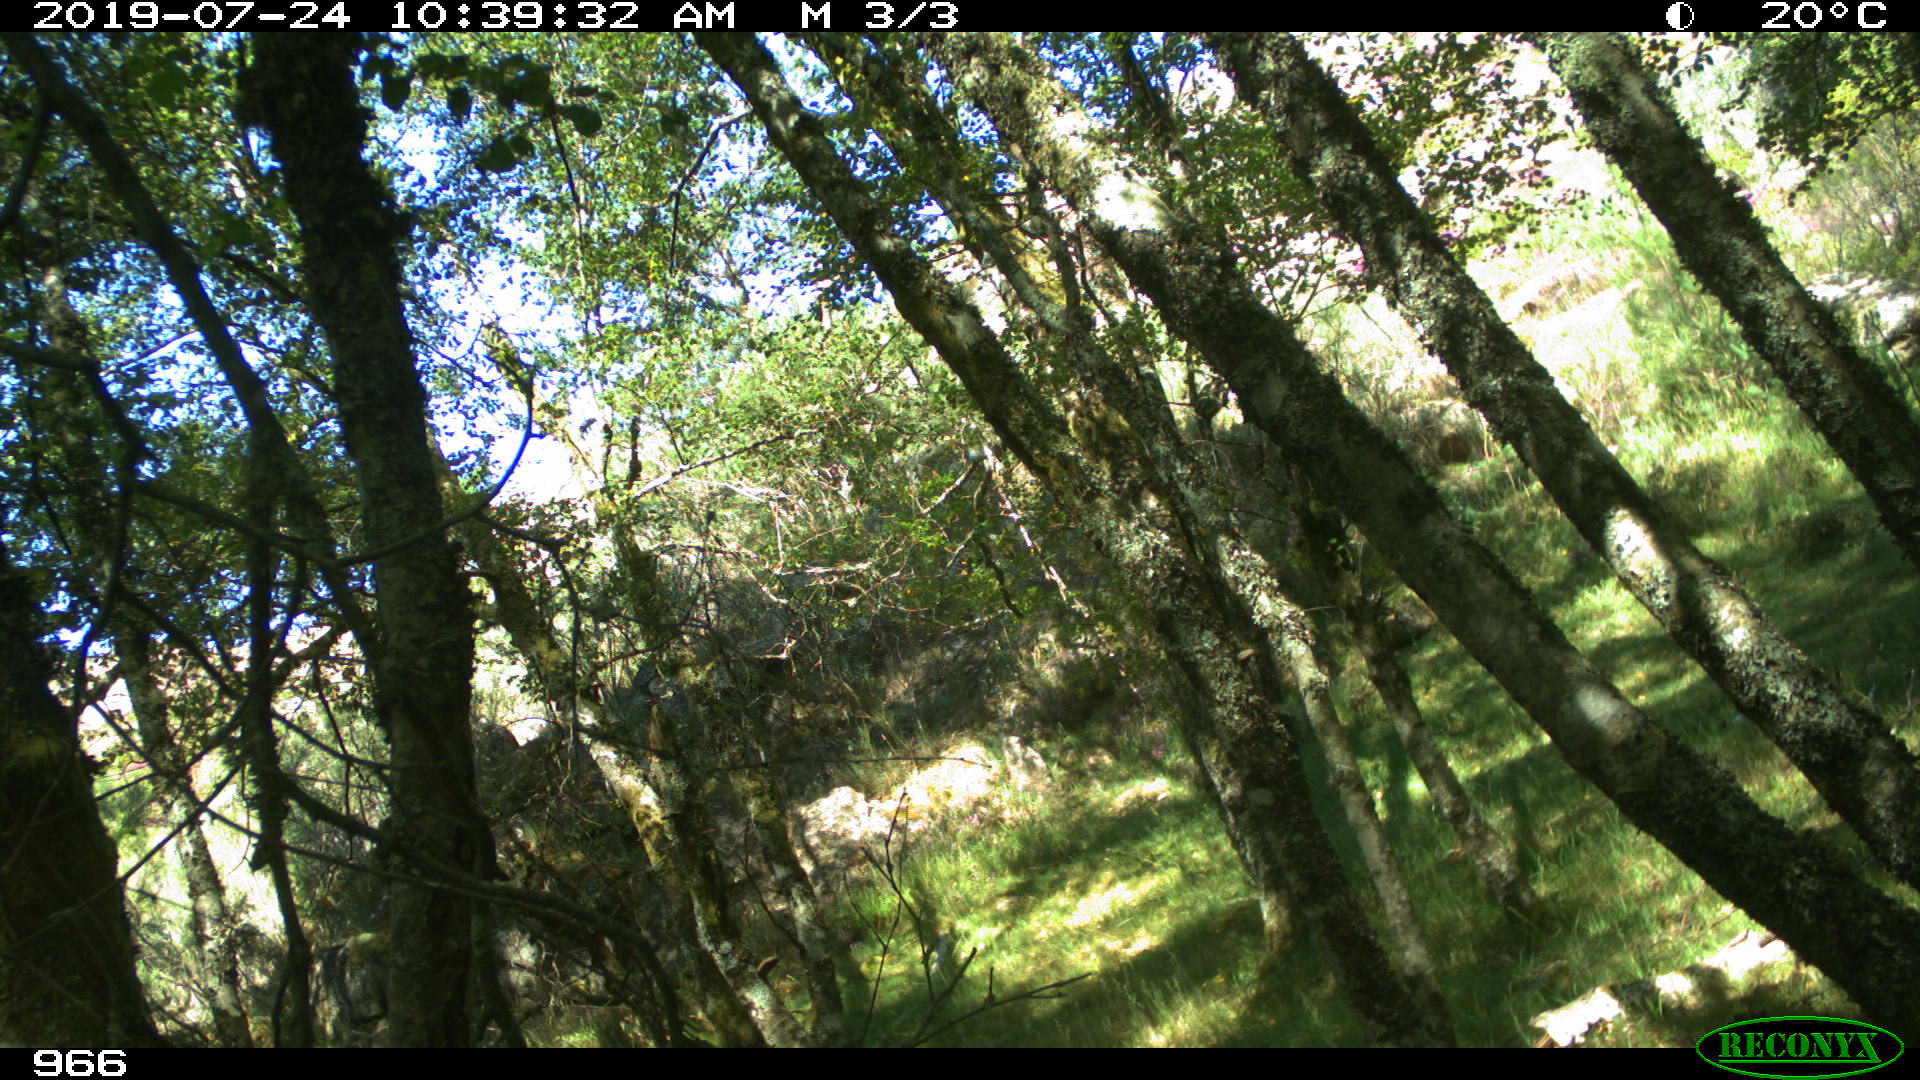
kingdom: Animalia
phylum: Chordata
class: Mammalia
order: Perissodactyla
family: Equidae
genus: Equus
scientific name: Equus caballus
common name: Horse
